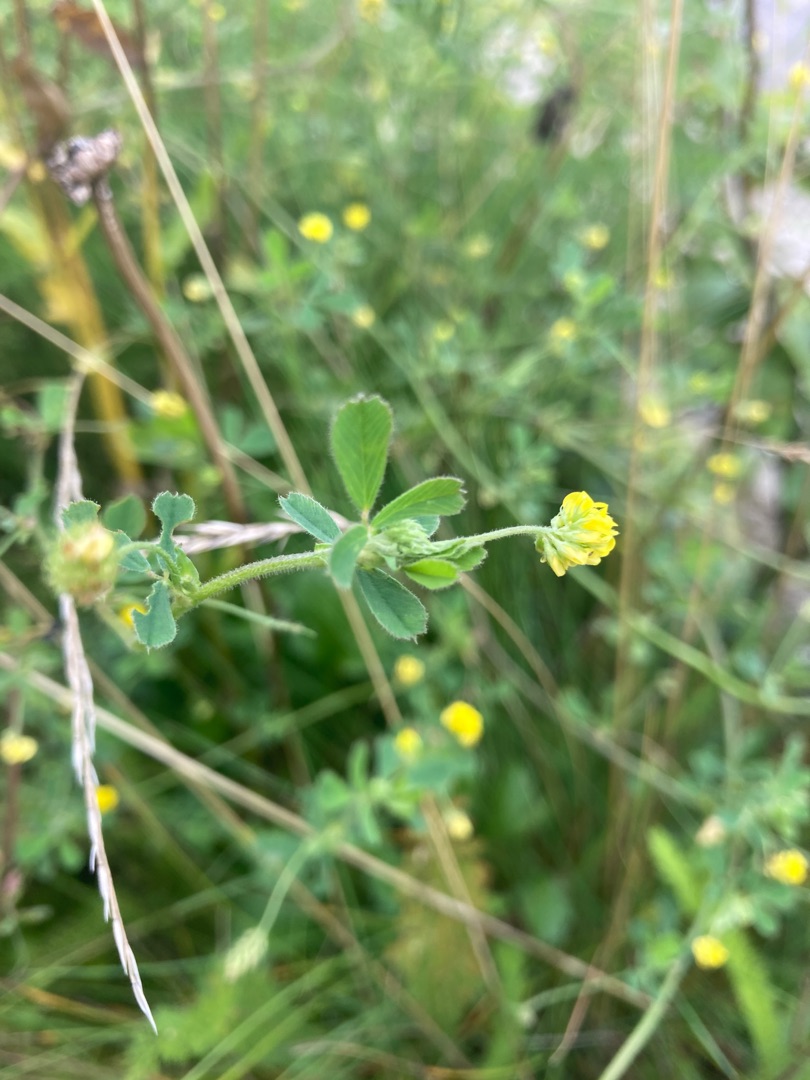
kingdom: Plantae
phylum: Tracheophyta
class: Magnoliopsida
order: Fabales
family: Fabaceae
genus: Medicago
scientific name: Medicago lupulina
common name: Humle-sneglebælg
